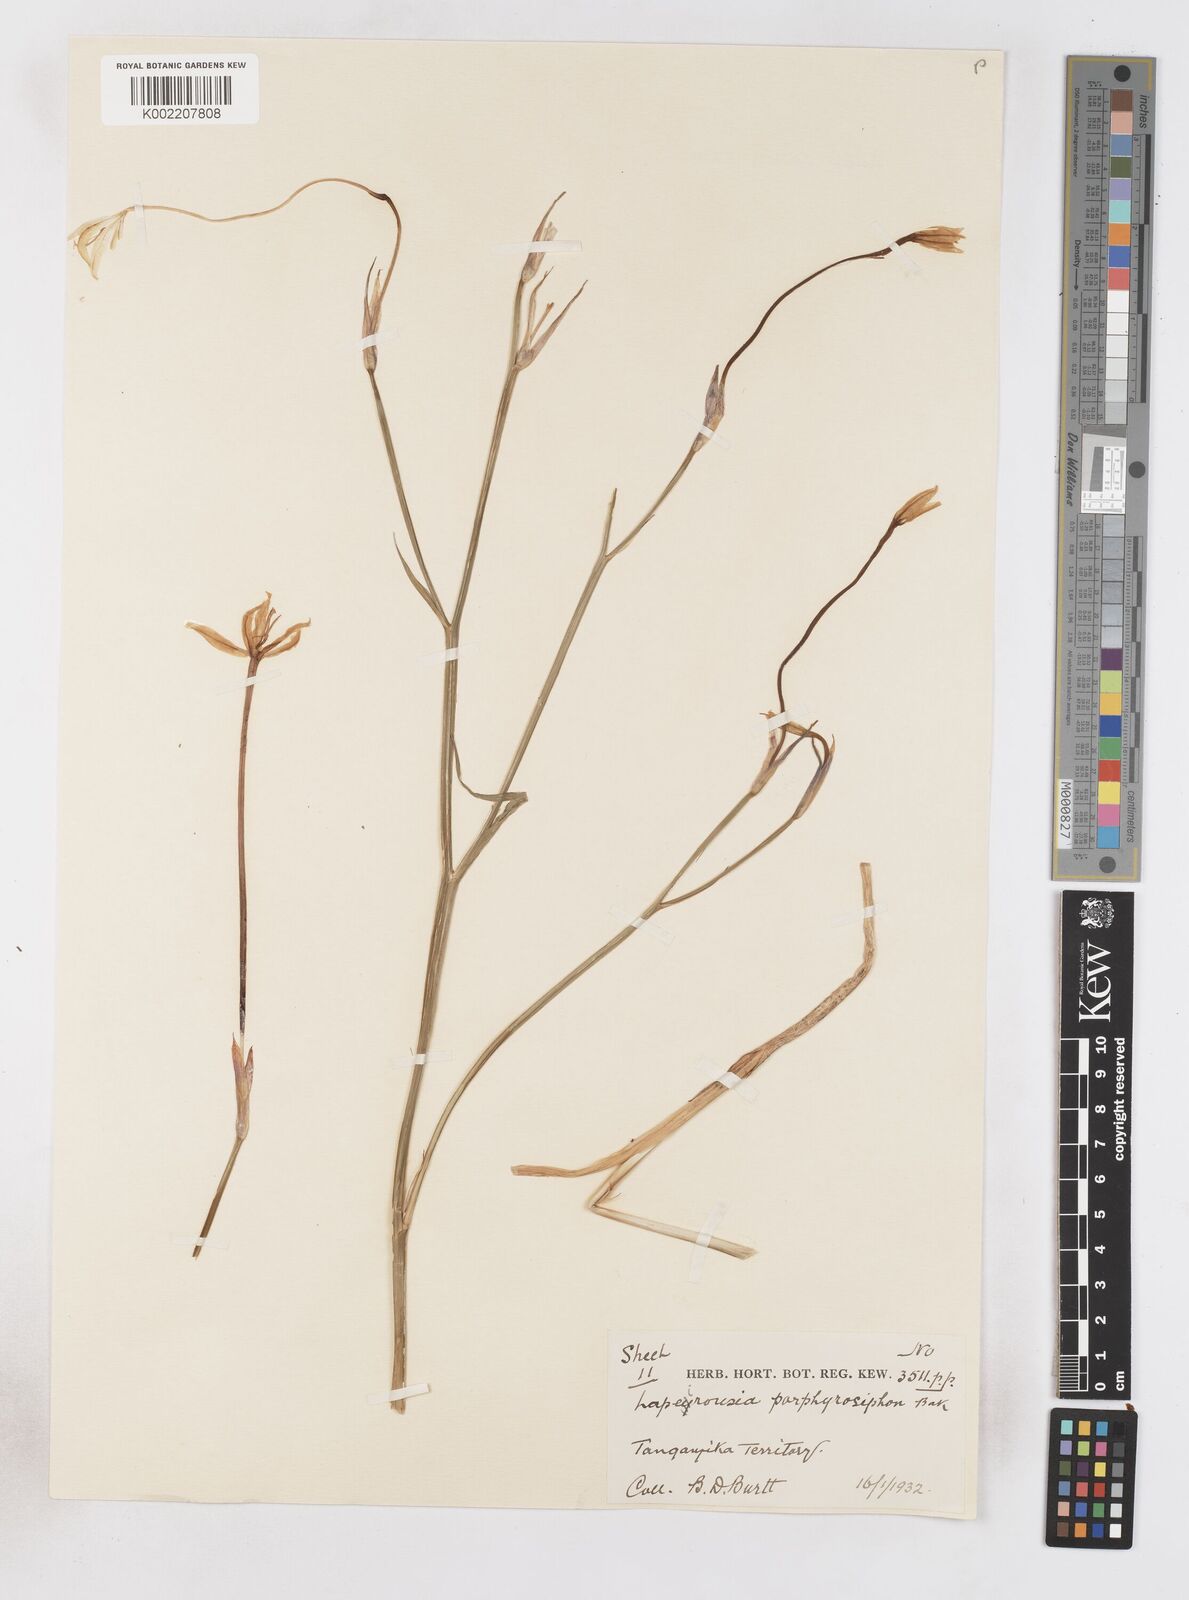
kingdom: Plantae
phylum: Tracheophyta
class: Liliopsida
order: Asparagales
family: Iridaceae
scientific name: Iridaceae
